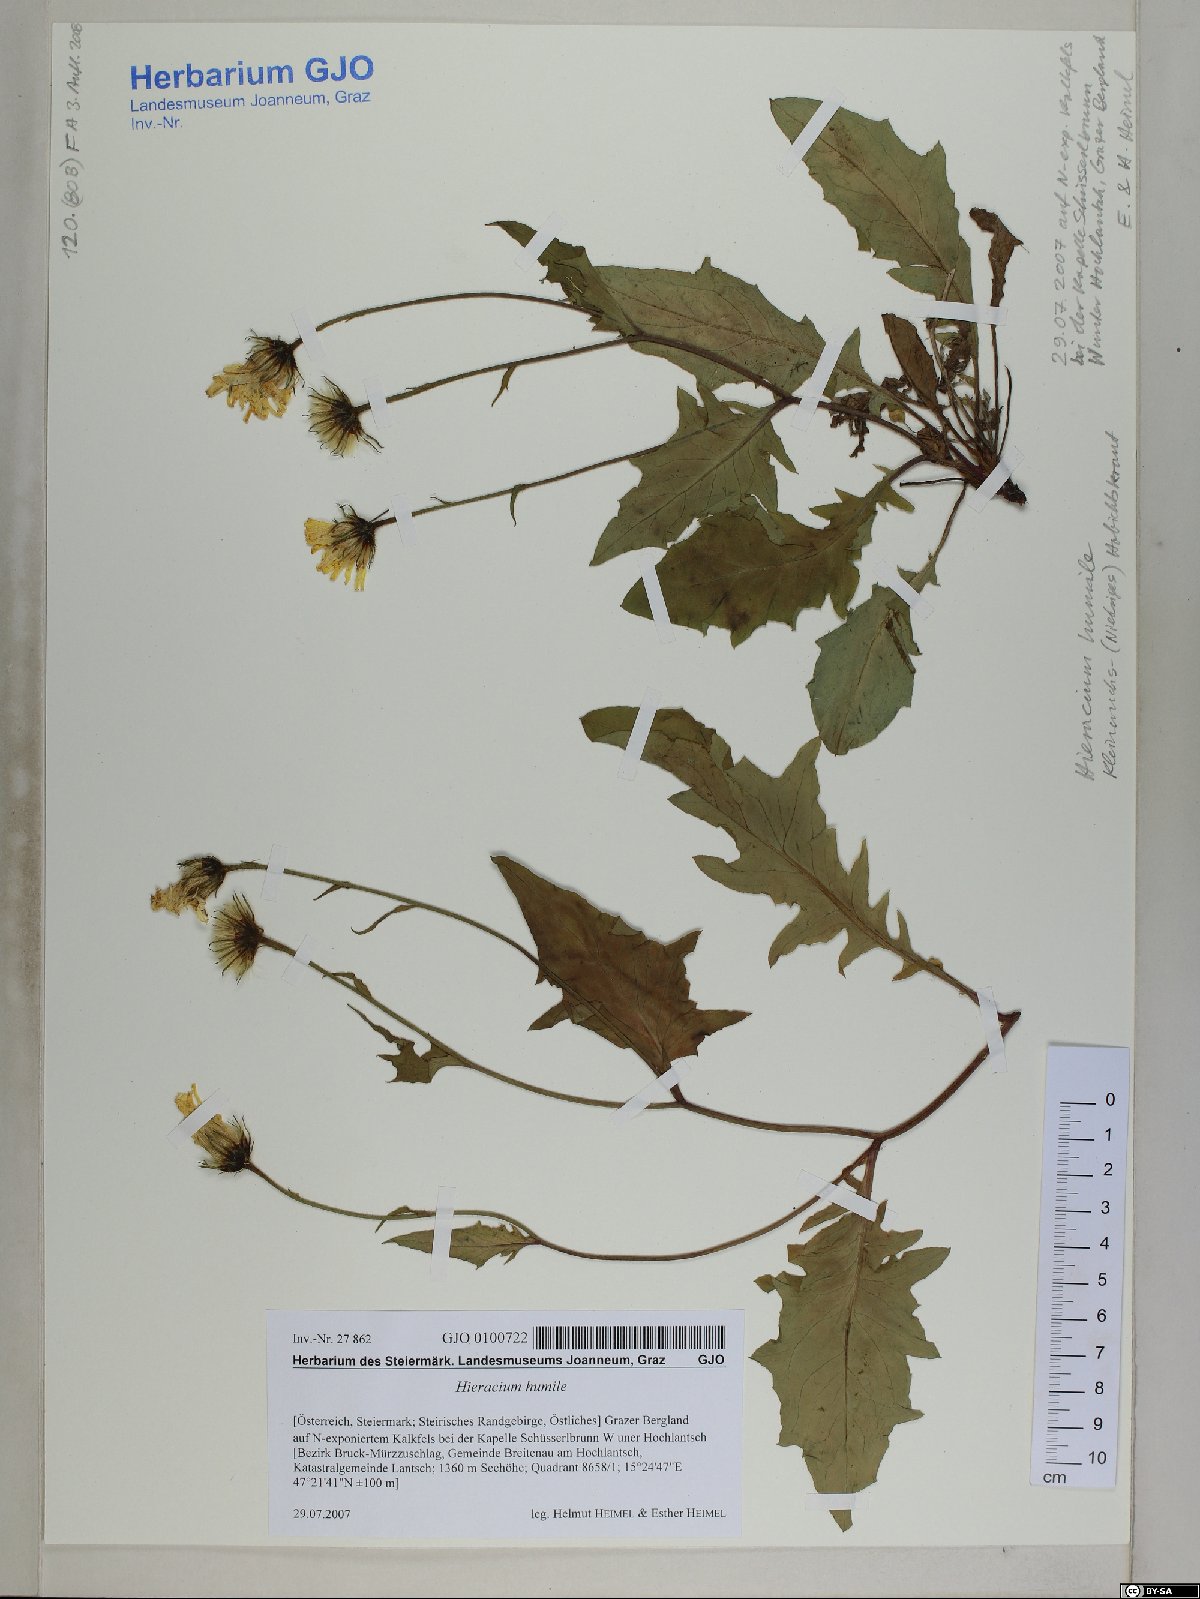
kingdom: Plantae
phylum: Tracheophyta
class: Magnoliopsida
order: Asterales
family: Asteraceae
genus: Hieracium
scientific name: Hieracium humile
